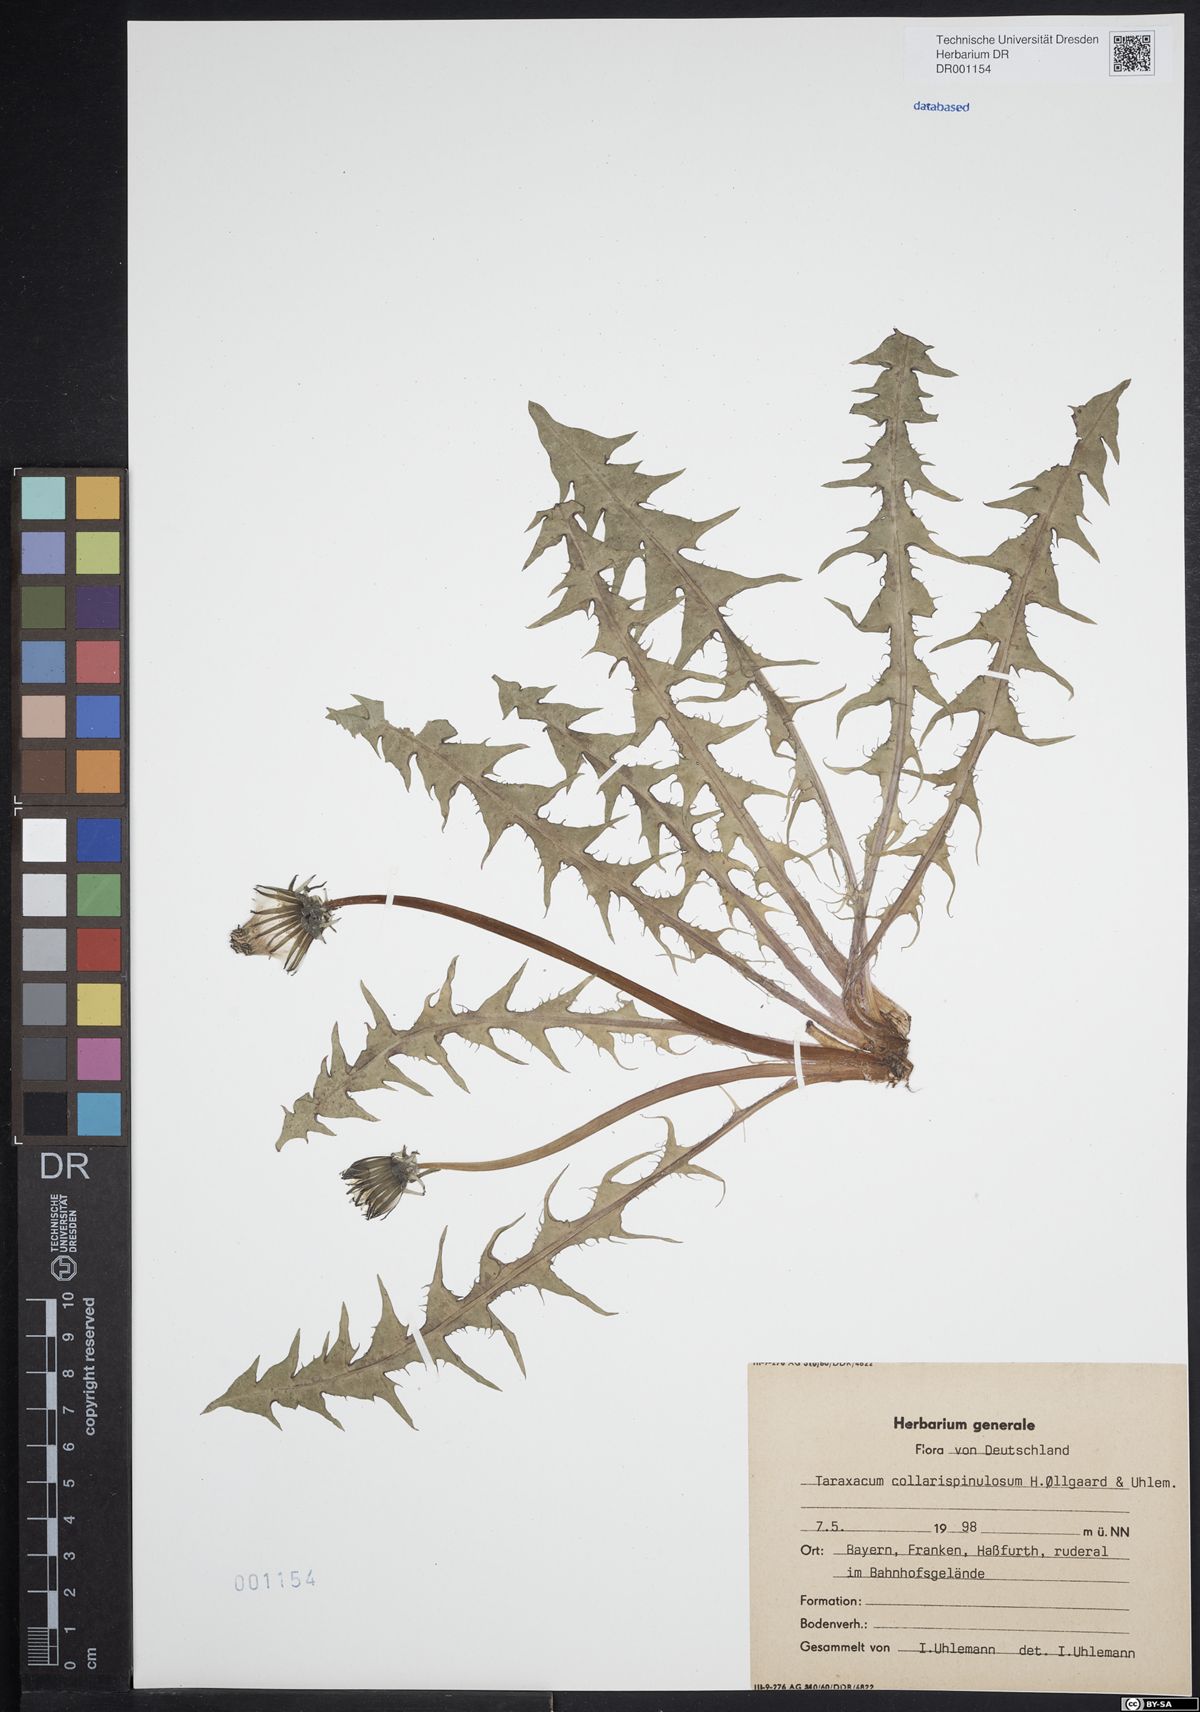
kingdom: Plantae
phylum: Tracheophyta
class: Magnoliopsida
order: Asterales
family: Asteraceae
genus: Taraxacum
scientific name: Taraxacum collarispinulosum
